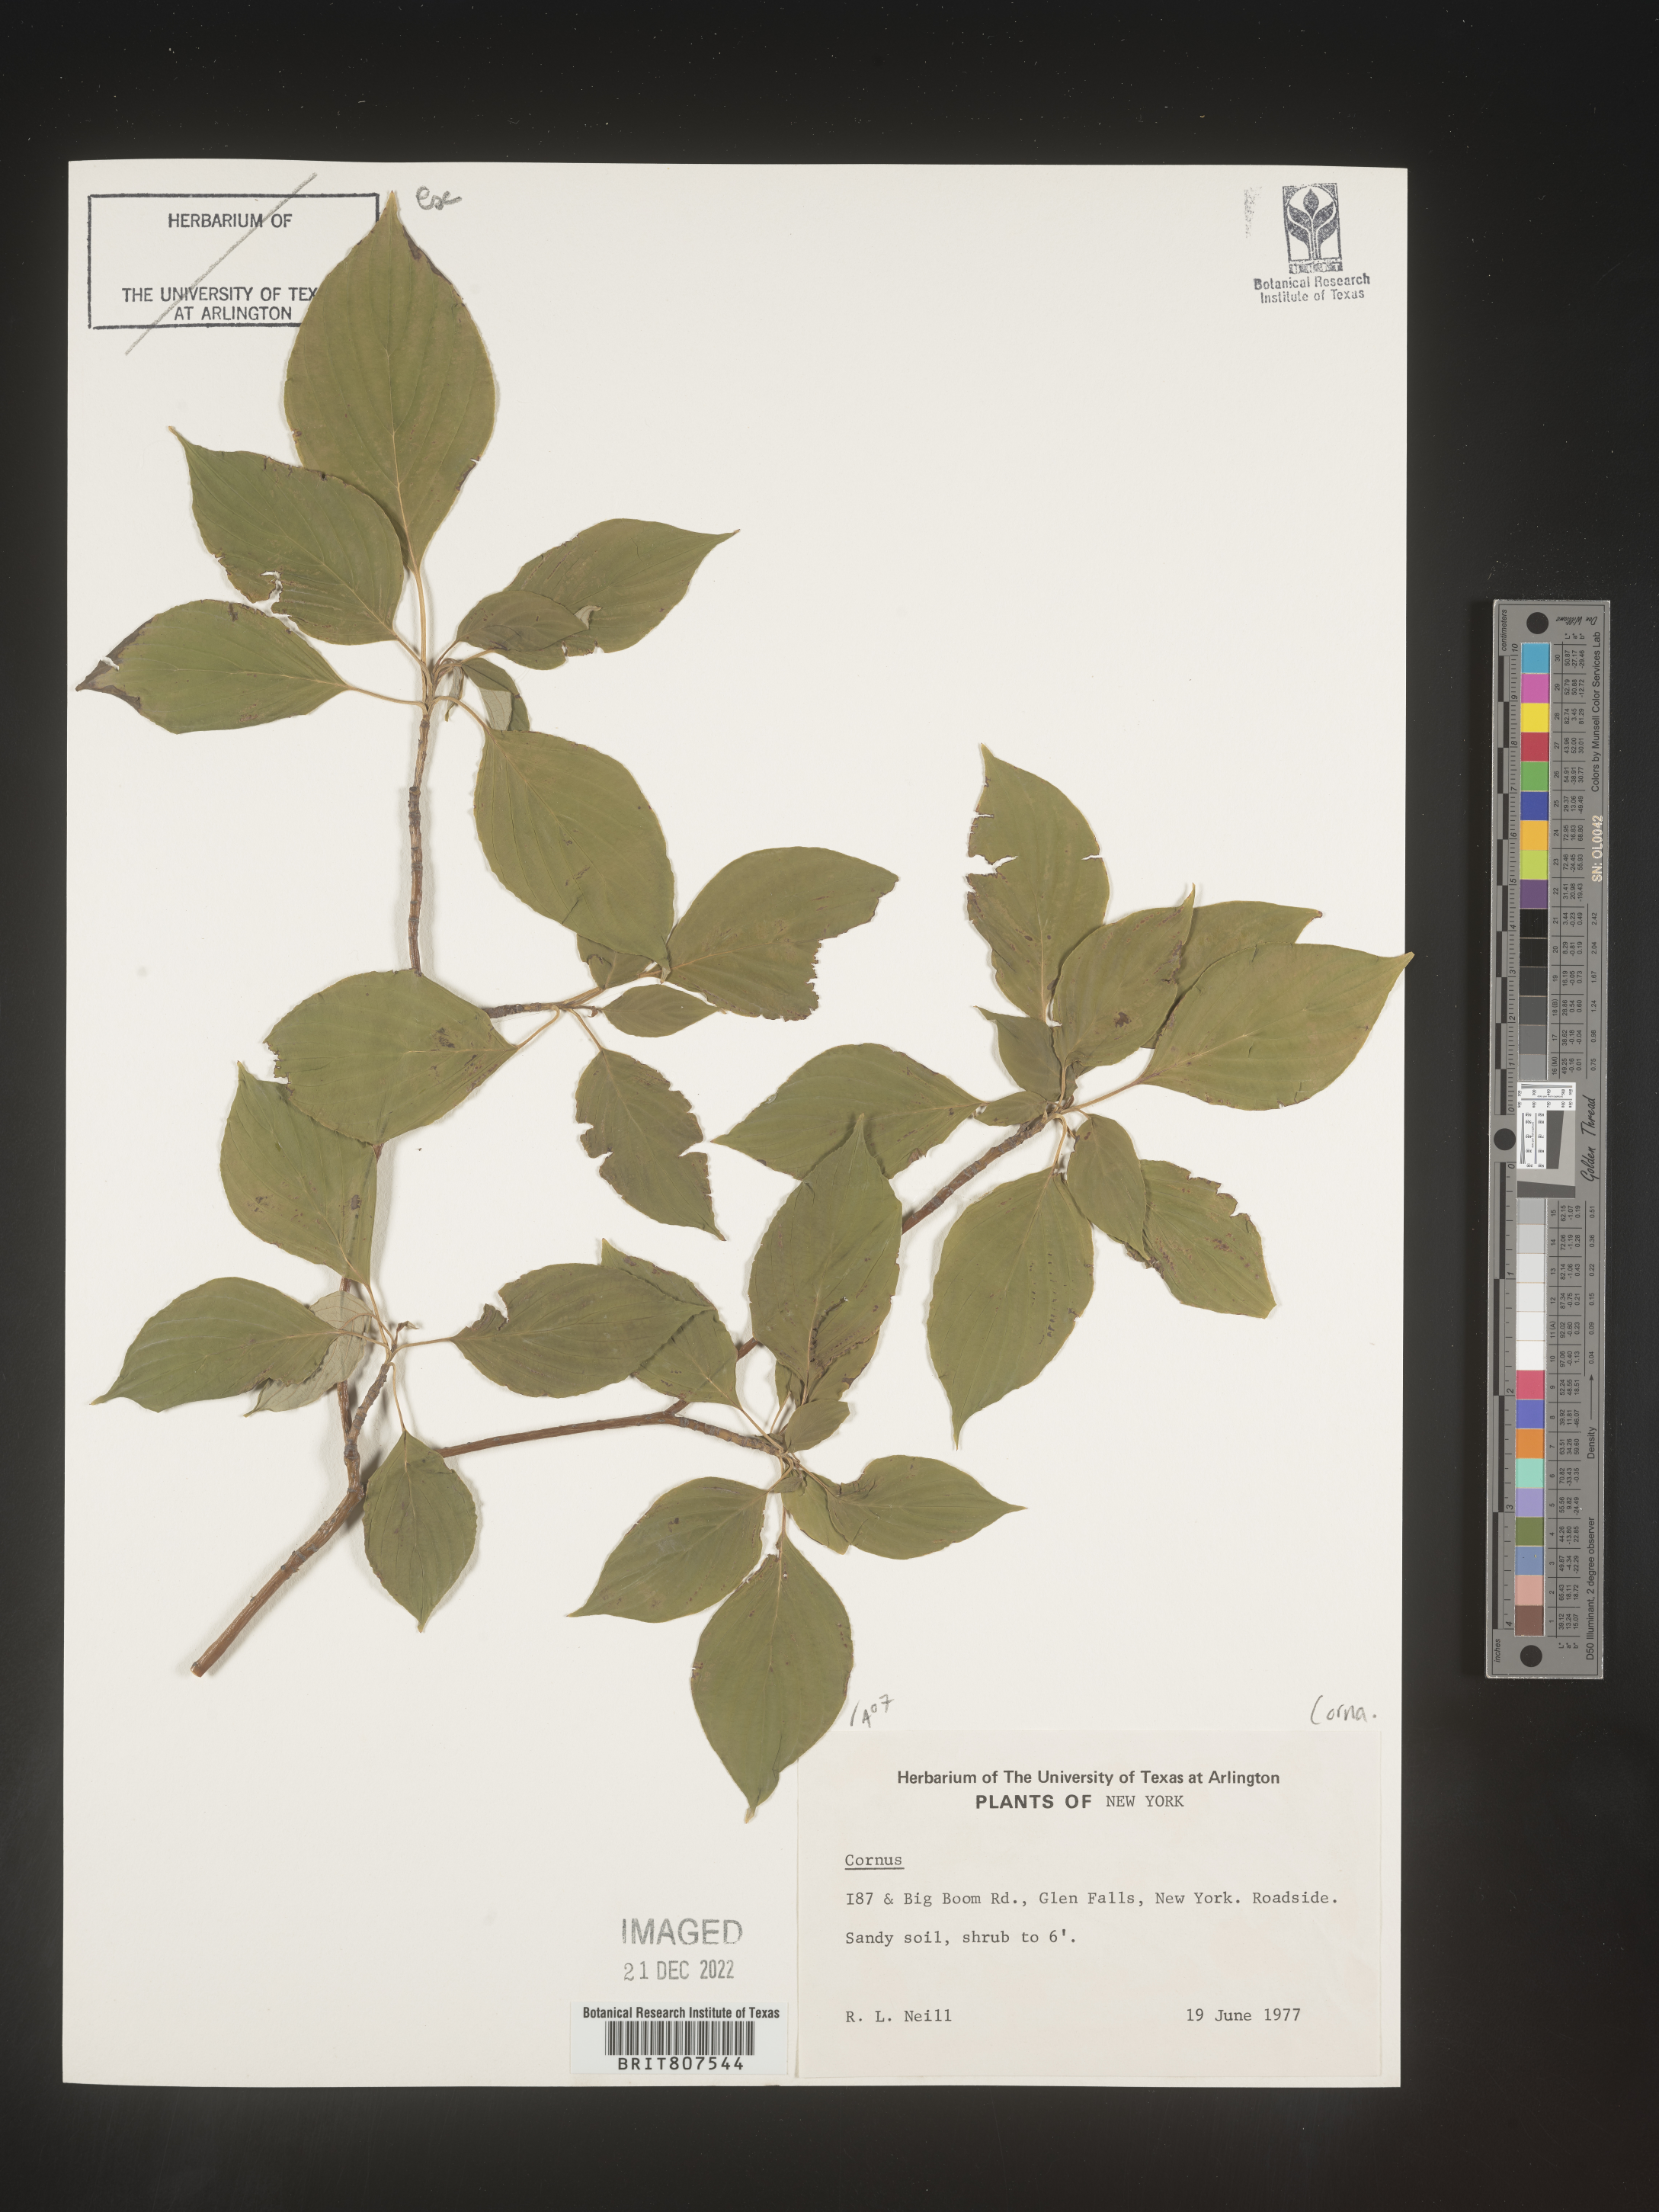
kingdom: Plantae
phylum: Tracheophyta
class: Magnoliopsida
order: Cornales
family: Cornaceae
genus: Cornus
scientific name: Cornus florida
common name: Flowering dogwood
